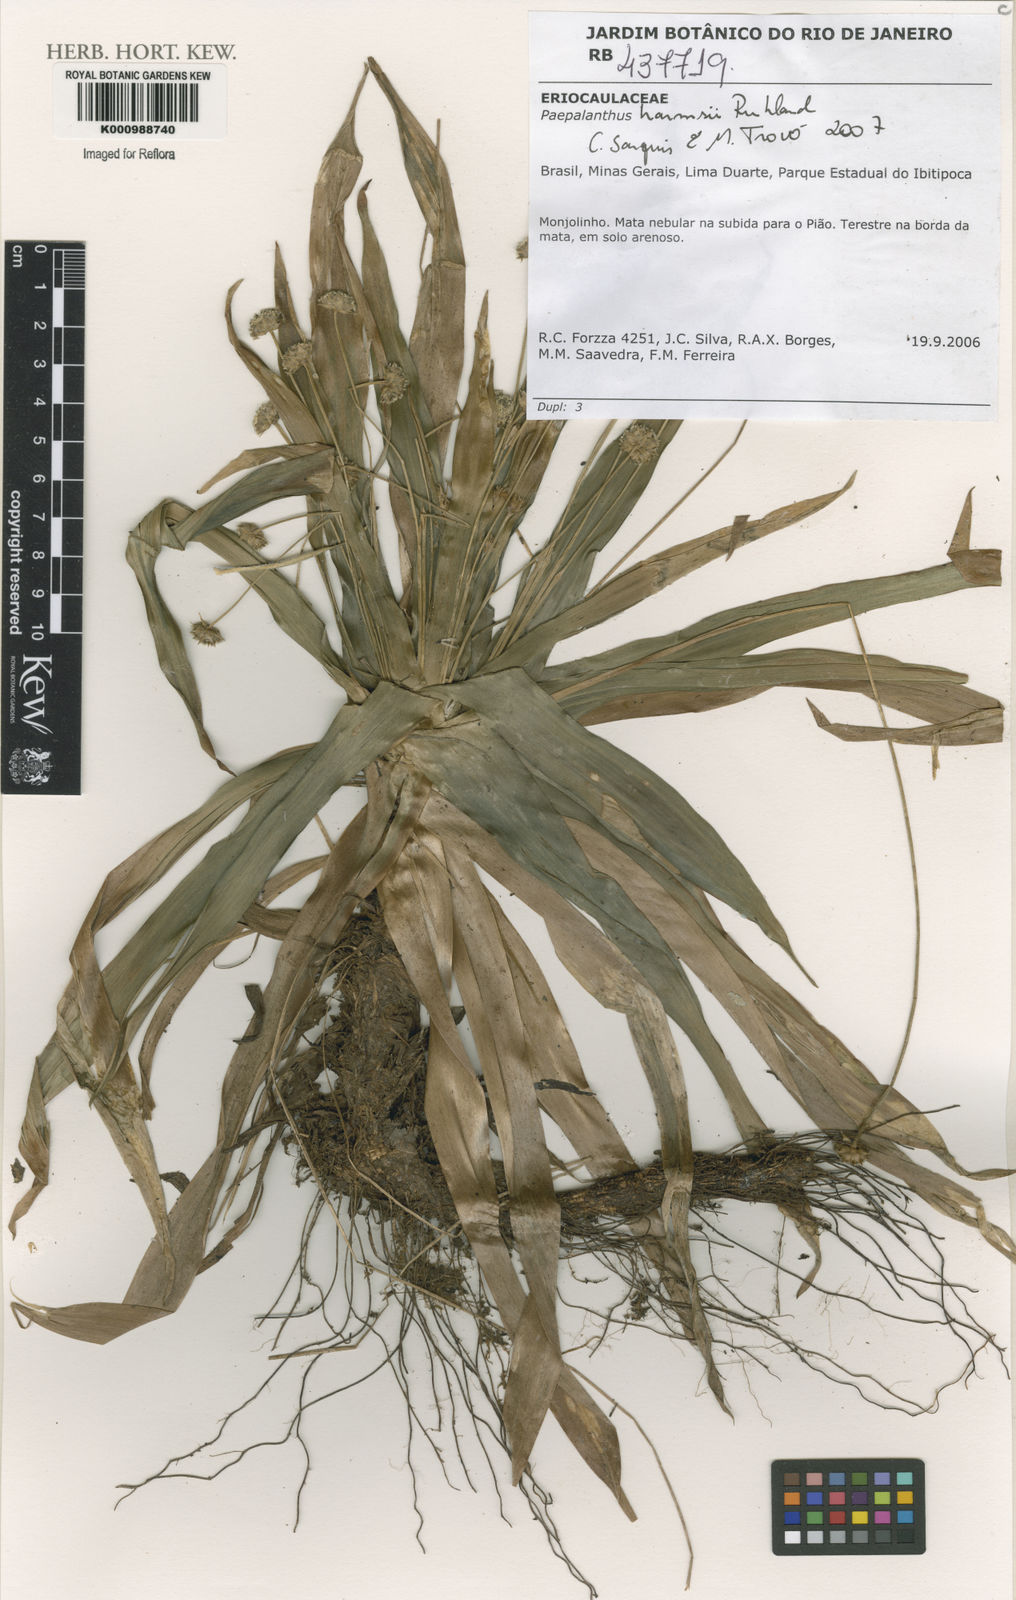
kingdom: Plantae
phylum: Tracheophyta
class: Liliopsida
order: Poales
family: Eriocaulaceae
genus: Paepalanthus
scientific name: Paepalanthus harmsii
